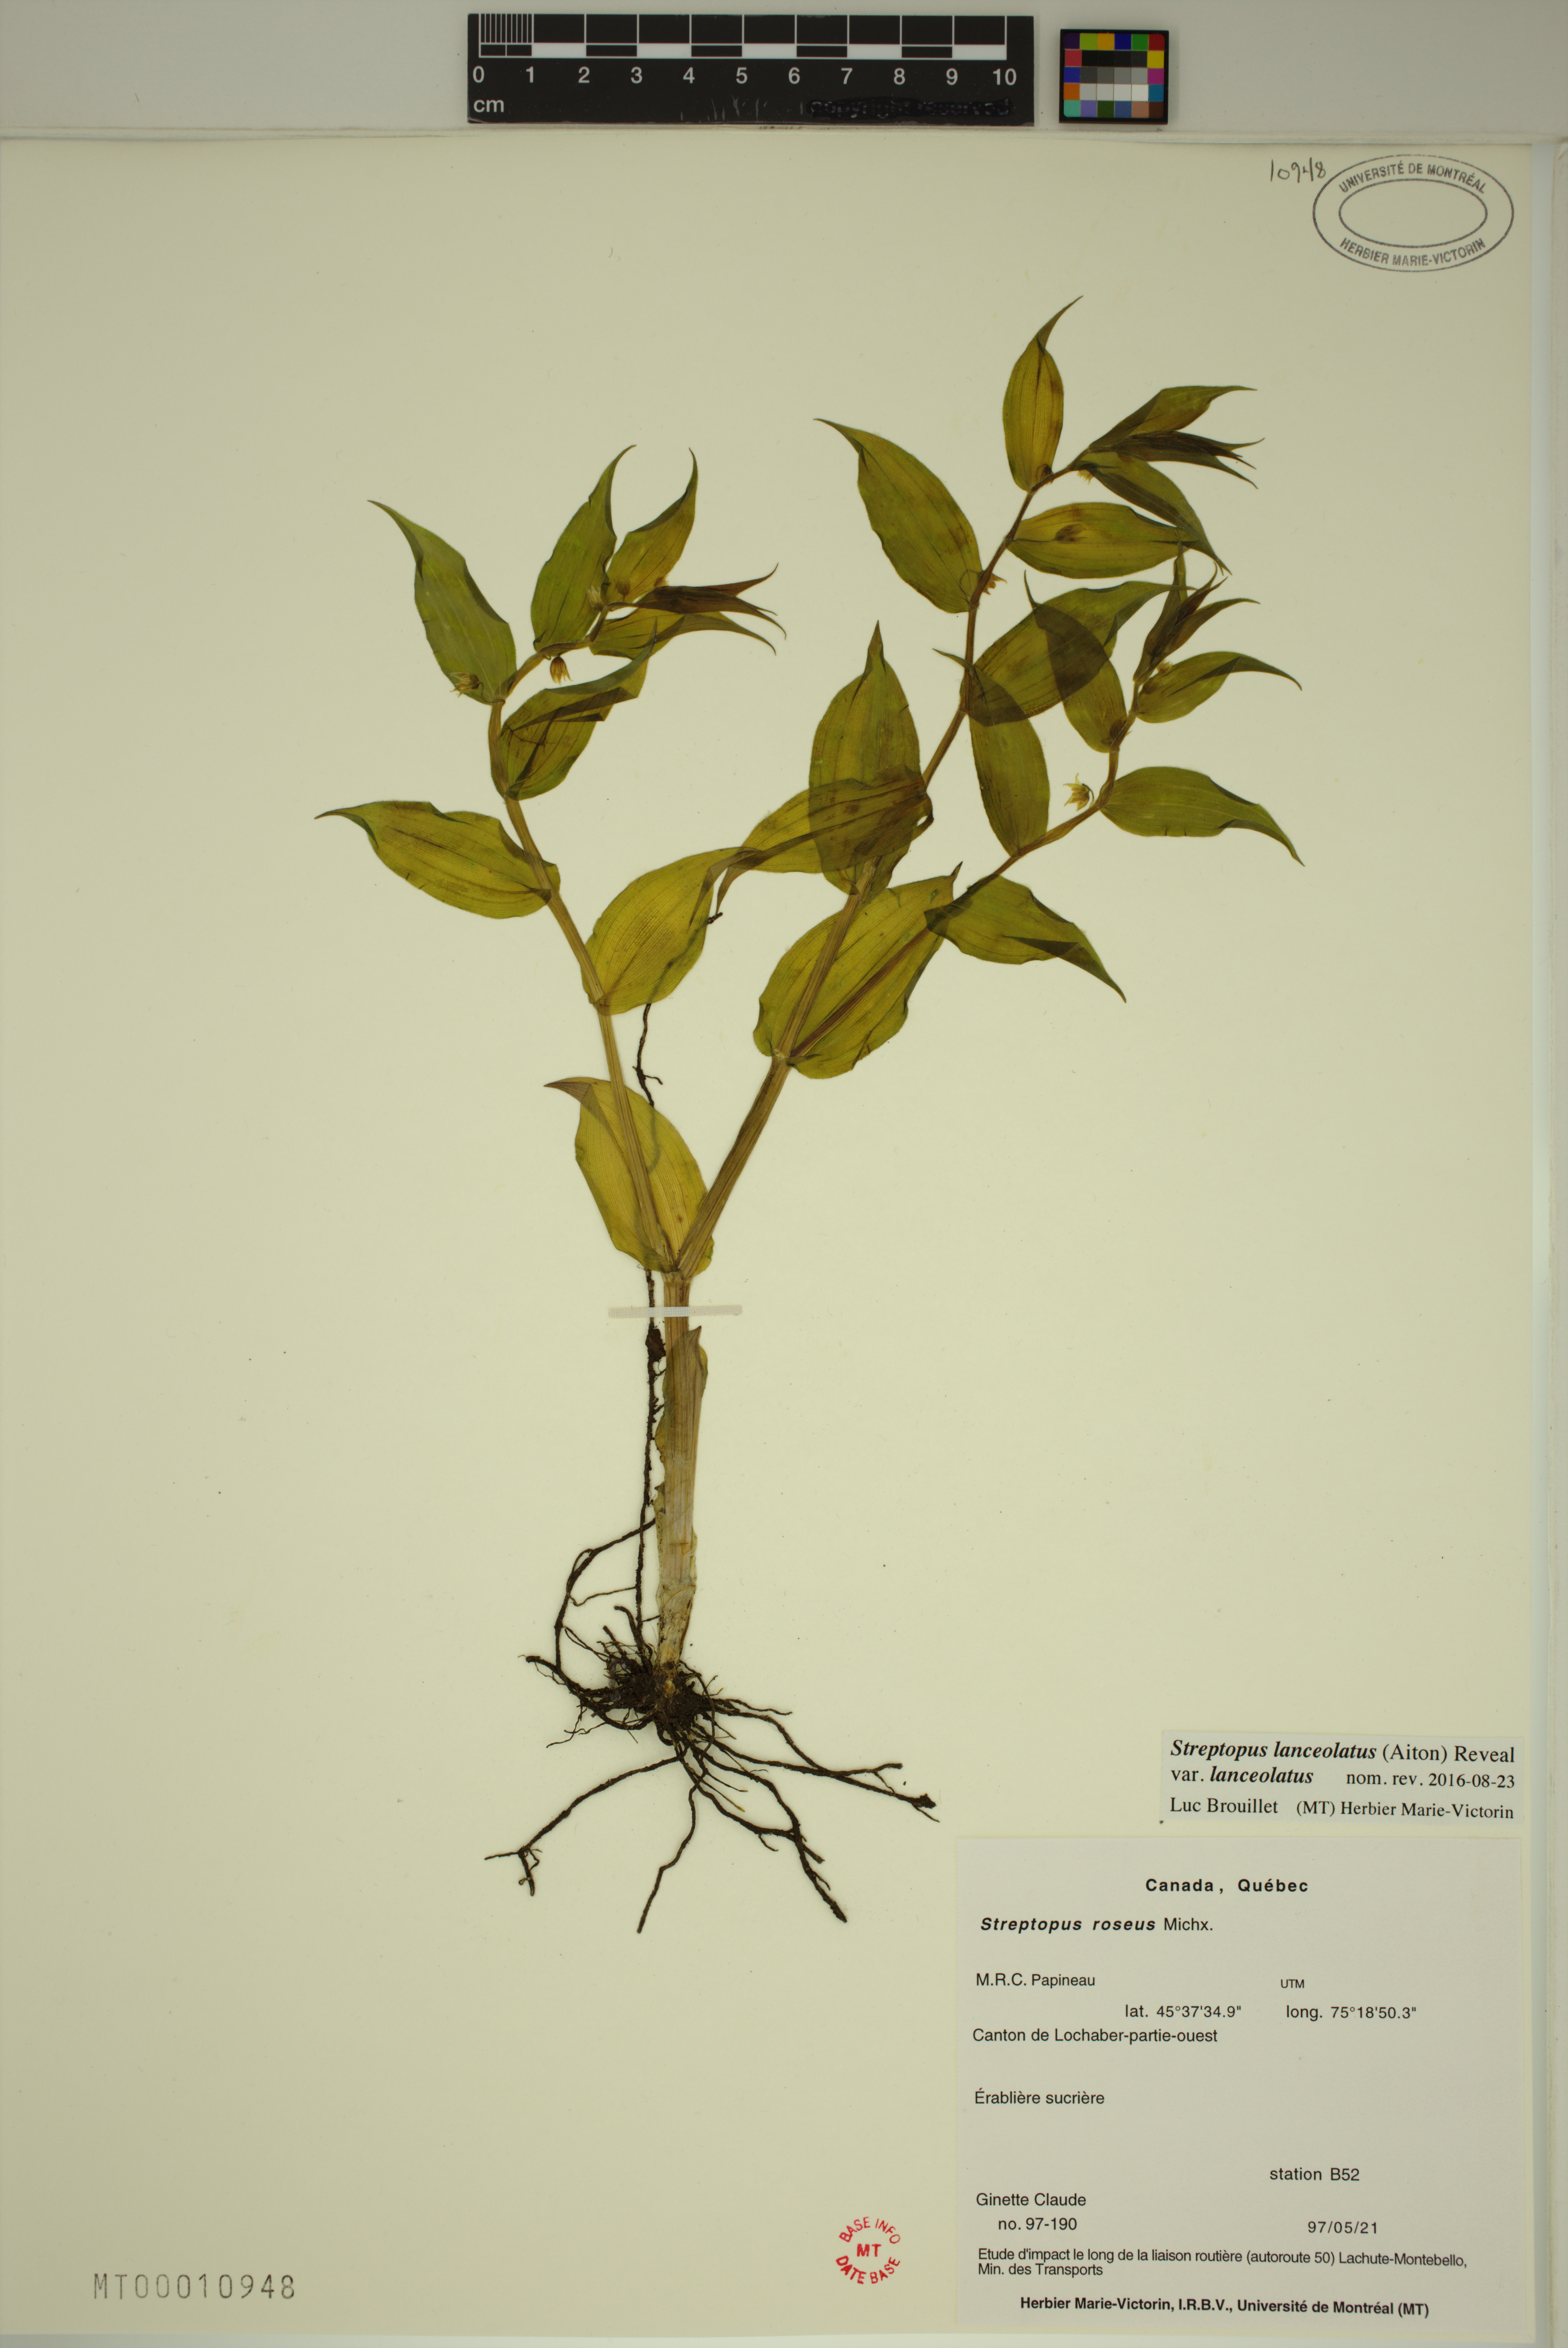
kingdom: Plantae
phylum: Tracheophyta
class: Liliopsida
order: Liliales
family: Liliaceae
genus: Streptopus
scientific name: Streptopus lanceolatus
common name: Rose mandarin
